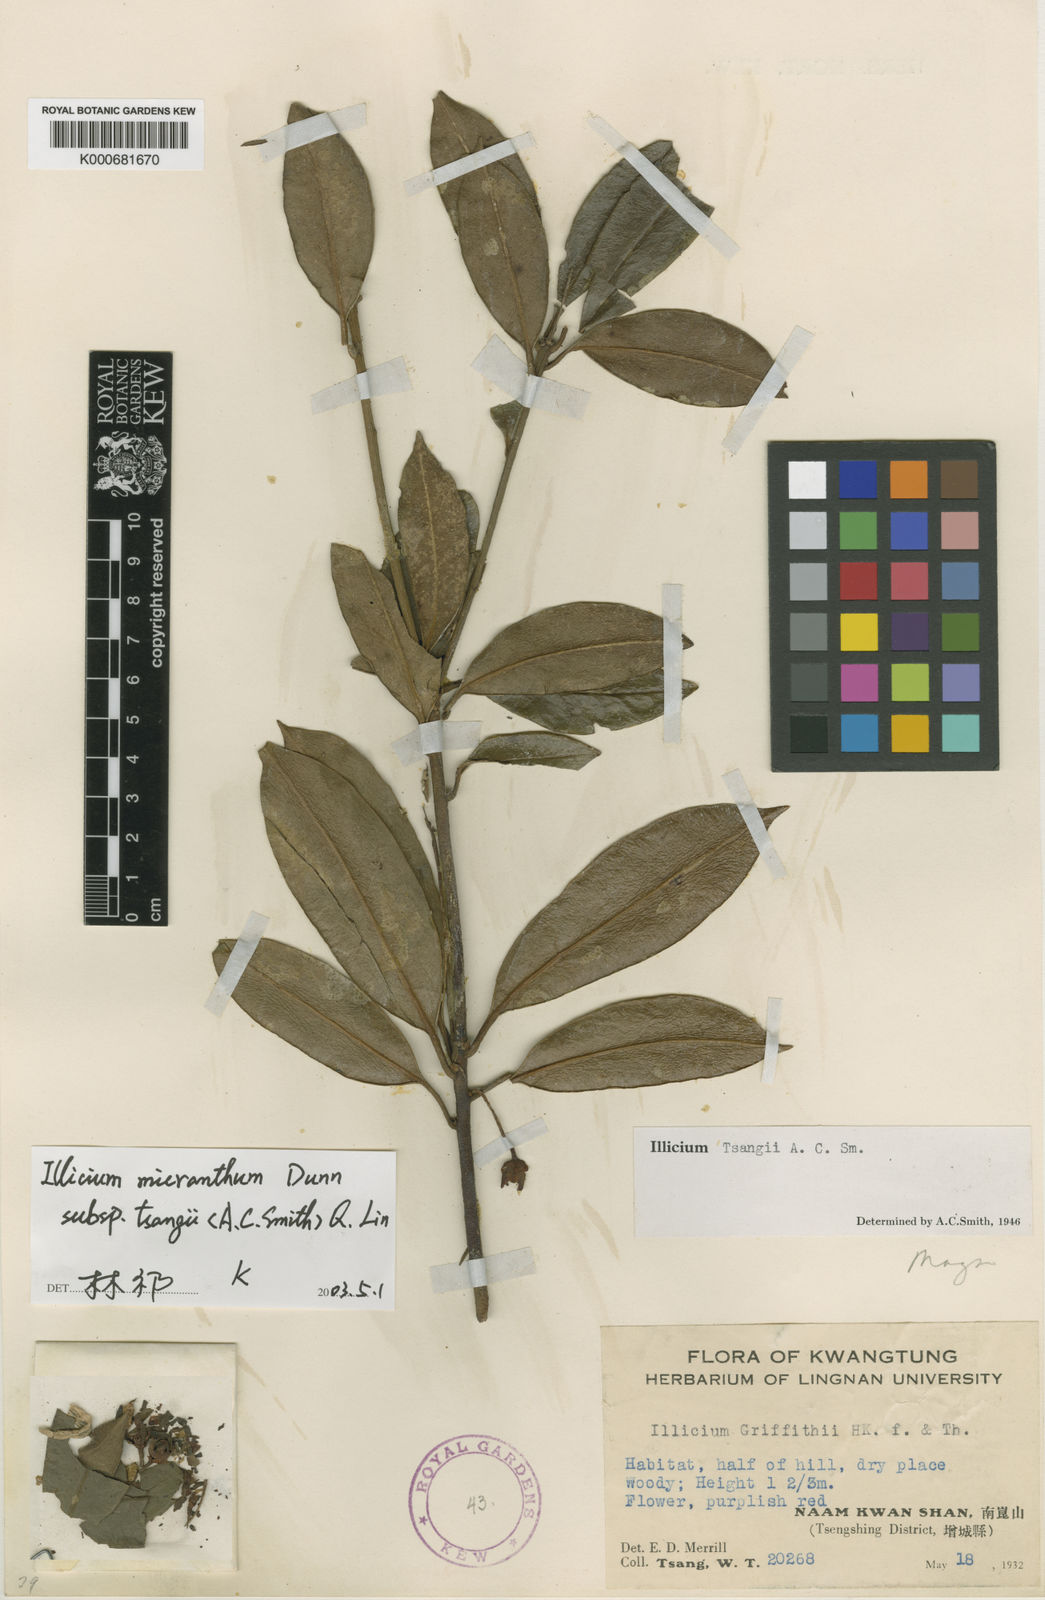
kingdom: Plantae
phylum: Tracheophyta
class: Magnoliopsida
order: Austrobaileyales
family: Schisandraceae
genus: Illicium
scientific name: Illicium micranthum
